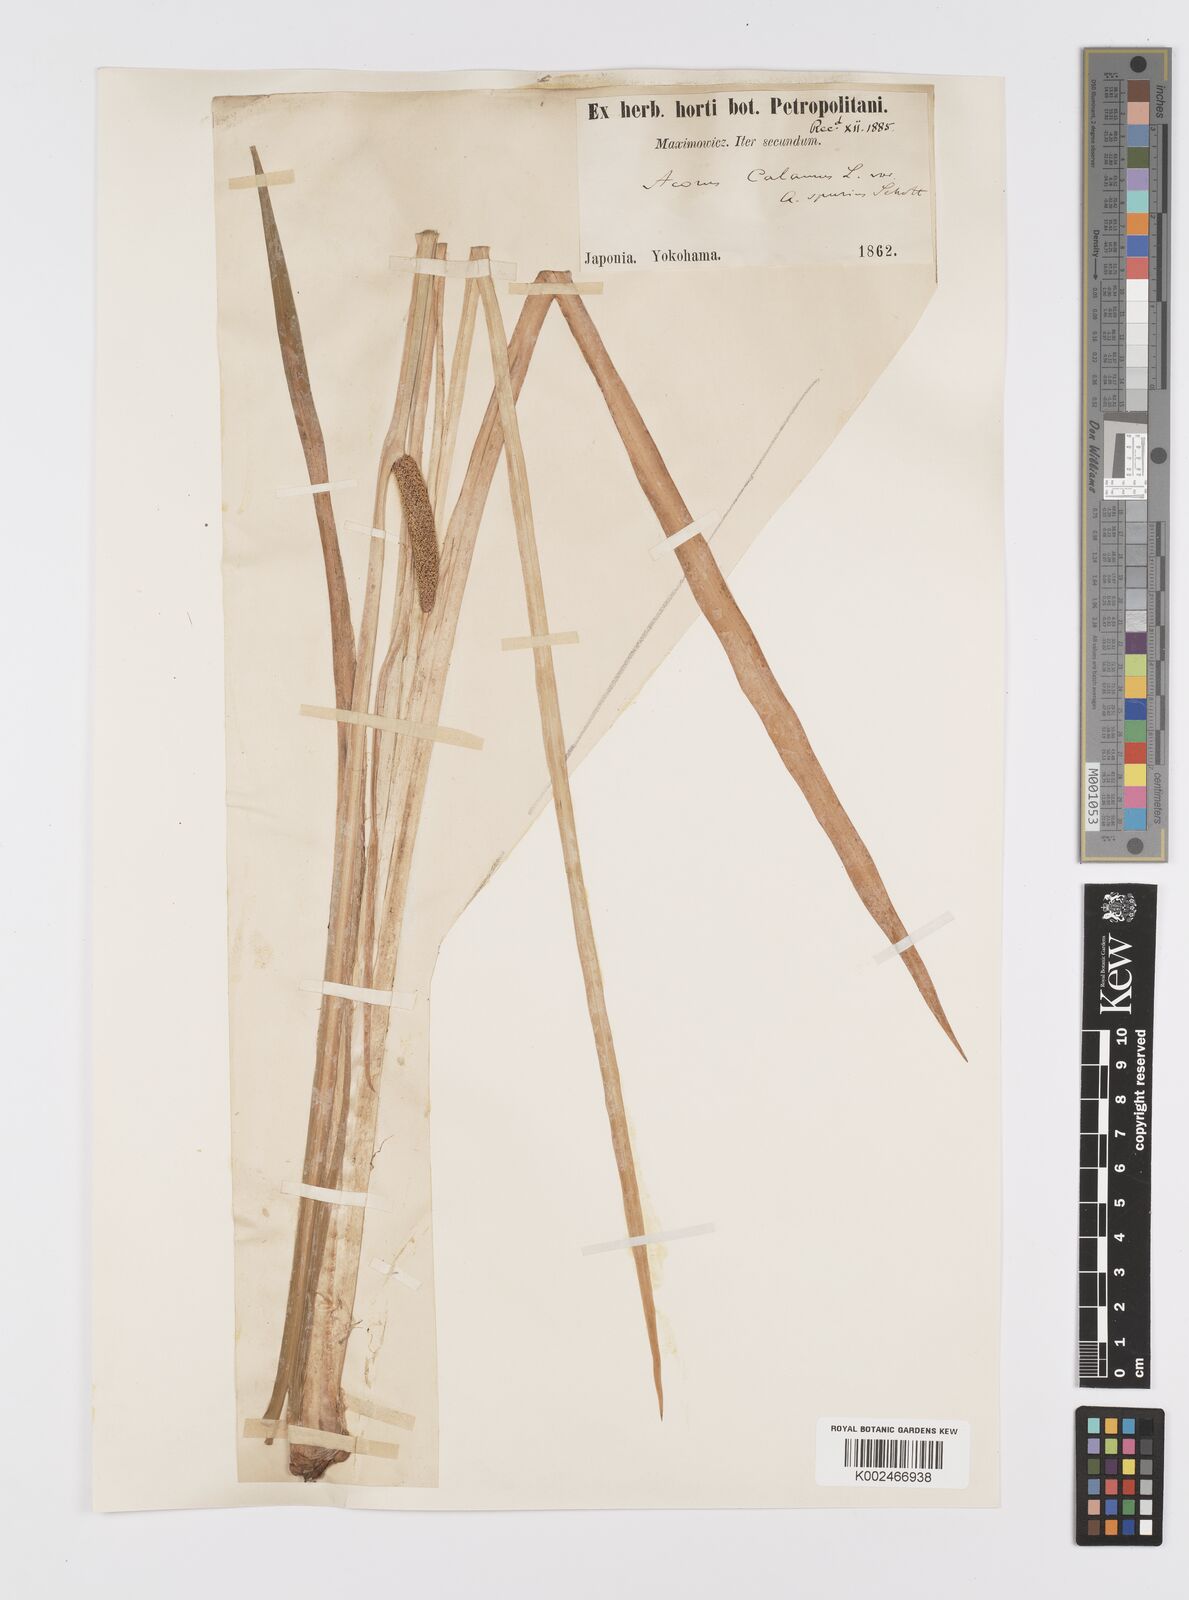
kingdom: Plantae
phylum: Tracheophyta
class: Liliopsida
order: Acorales
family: Acoraceae
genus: Acorus
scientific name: Acorus calamus
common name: Sweet-flag
